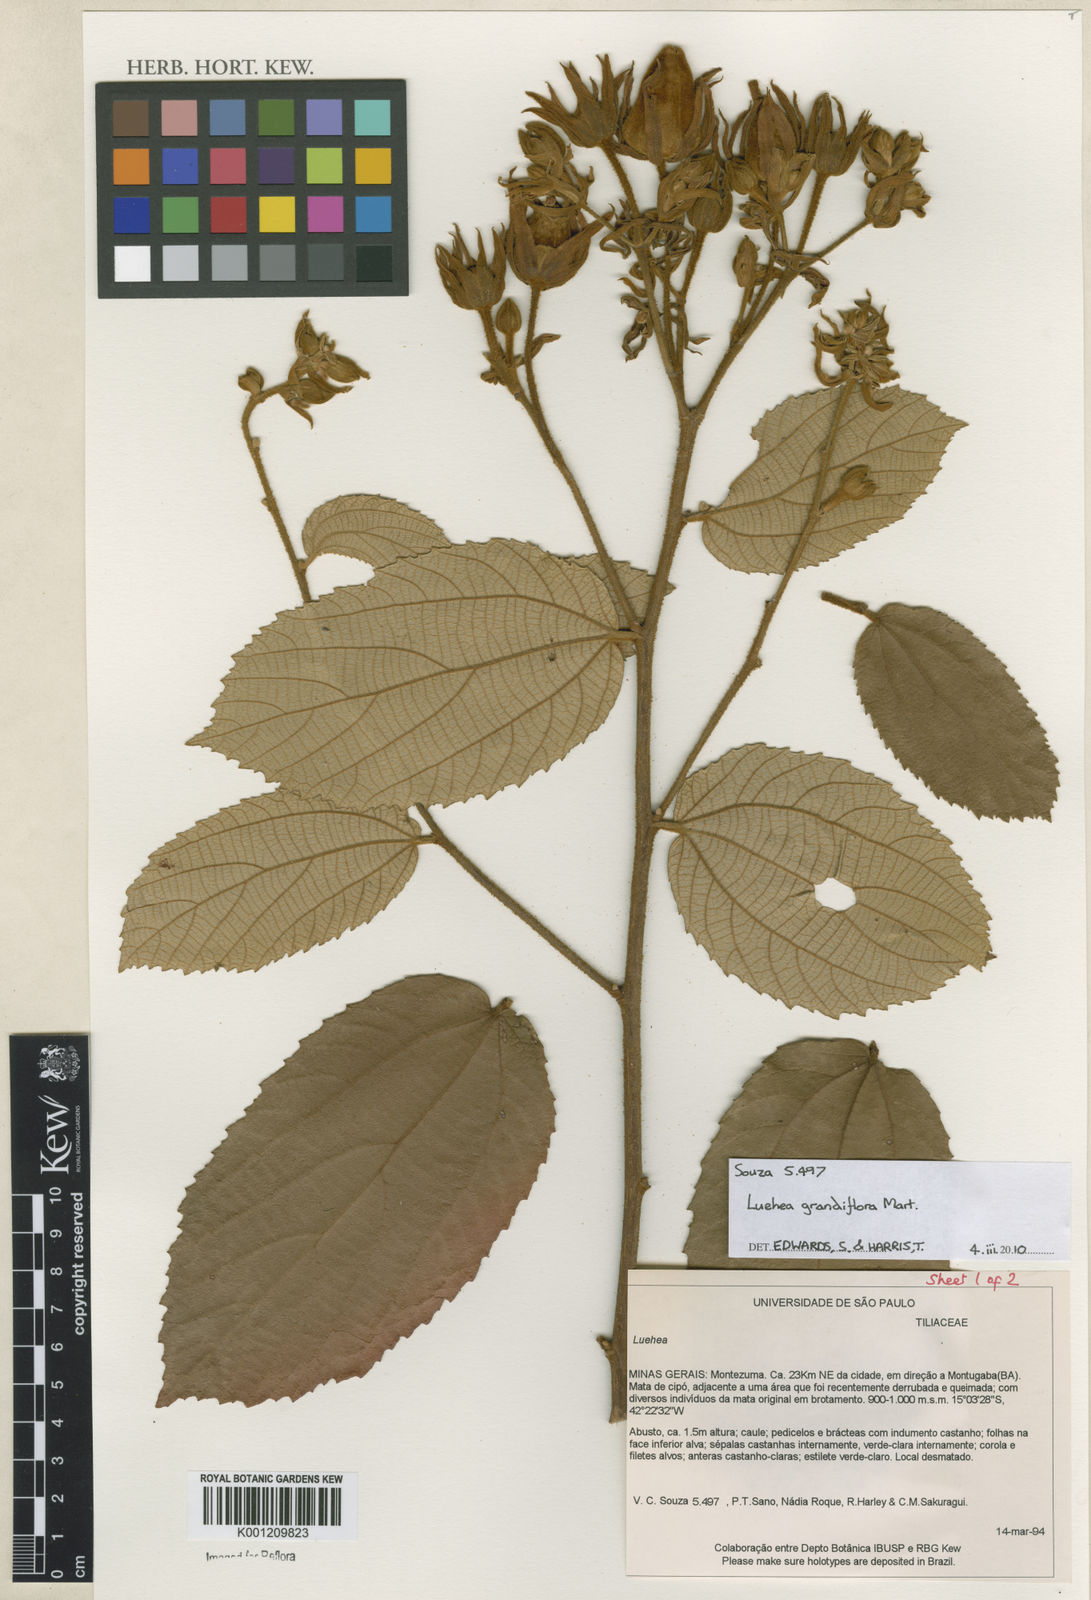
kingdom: Plantae
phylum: Tracheophyta
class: Magnoliopsida
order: Malvales
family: Malvaceae
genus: Luehea
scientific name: Luehea grandiflora
